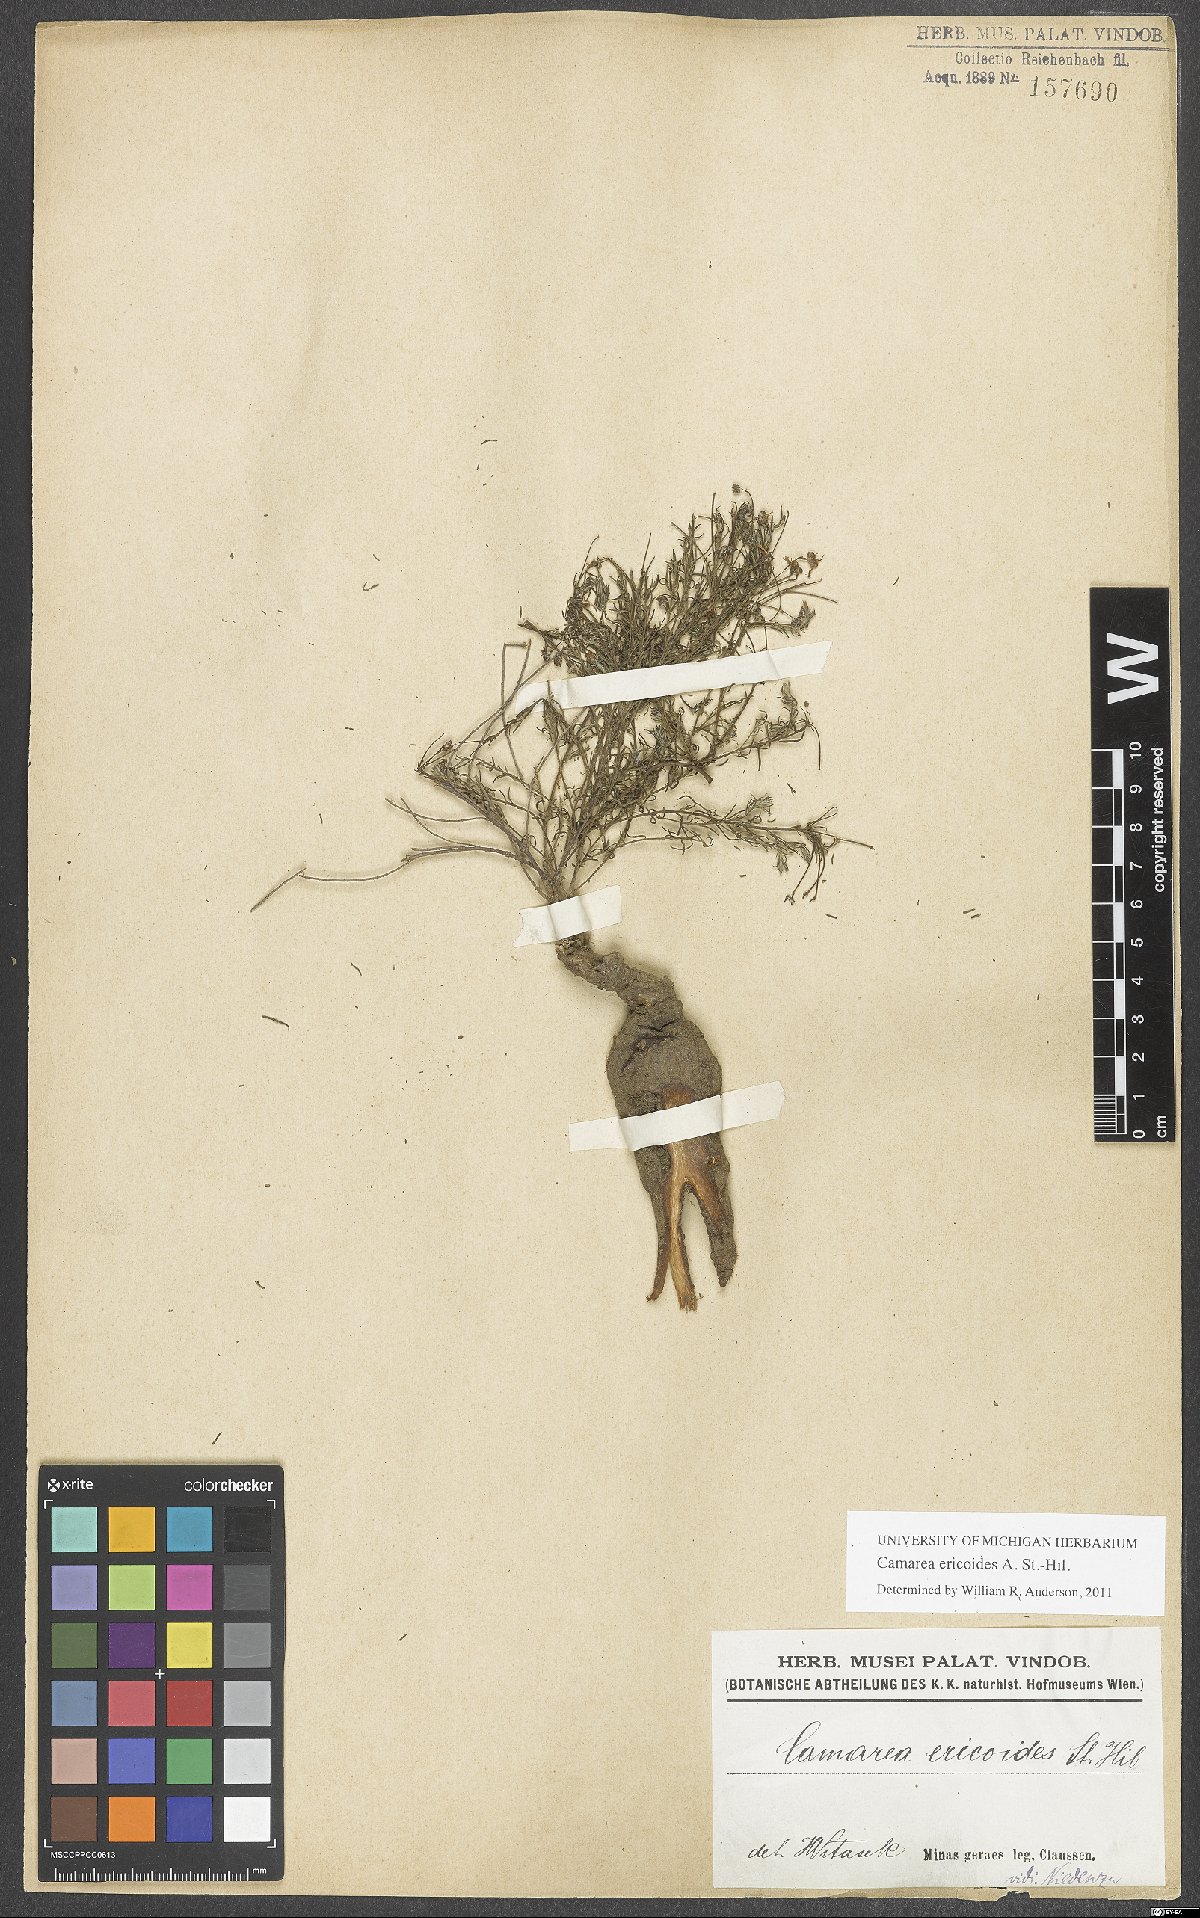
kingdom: Plantae
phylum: Tracheophyta
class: Magnoliopsida
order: Malpighiales
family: Malpighiaceae
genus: Camarea
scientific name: Camarea ericoides
